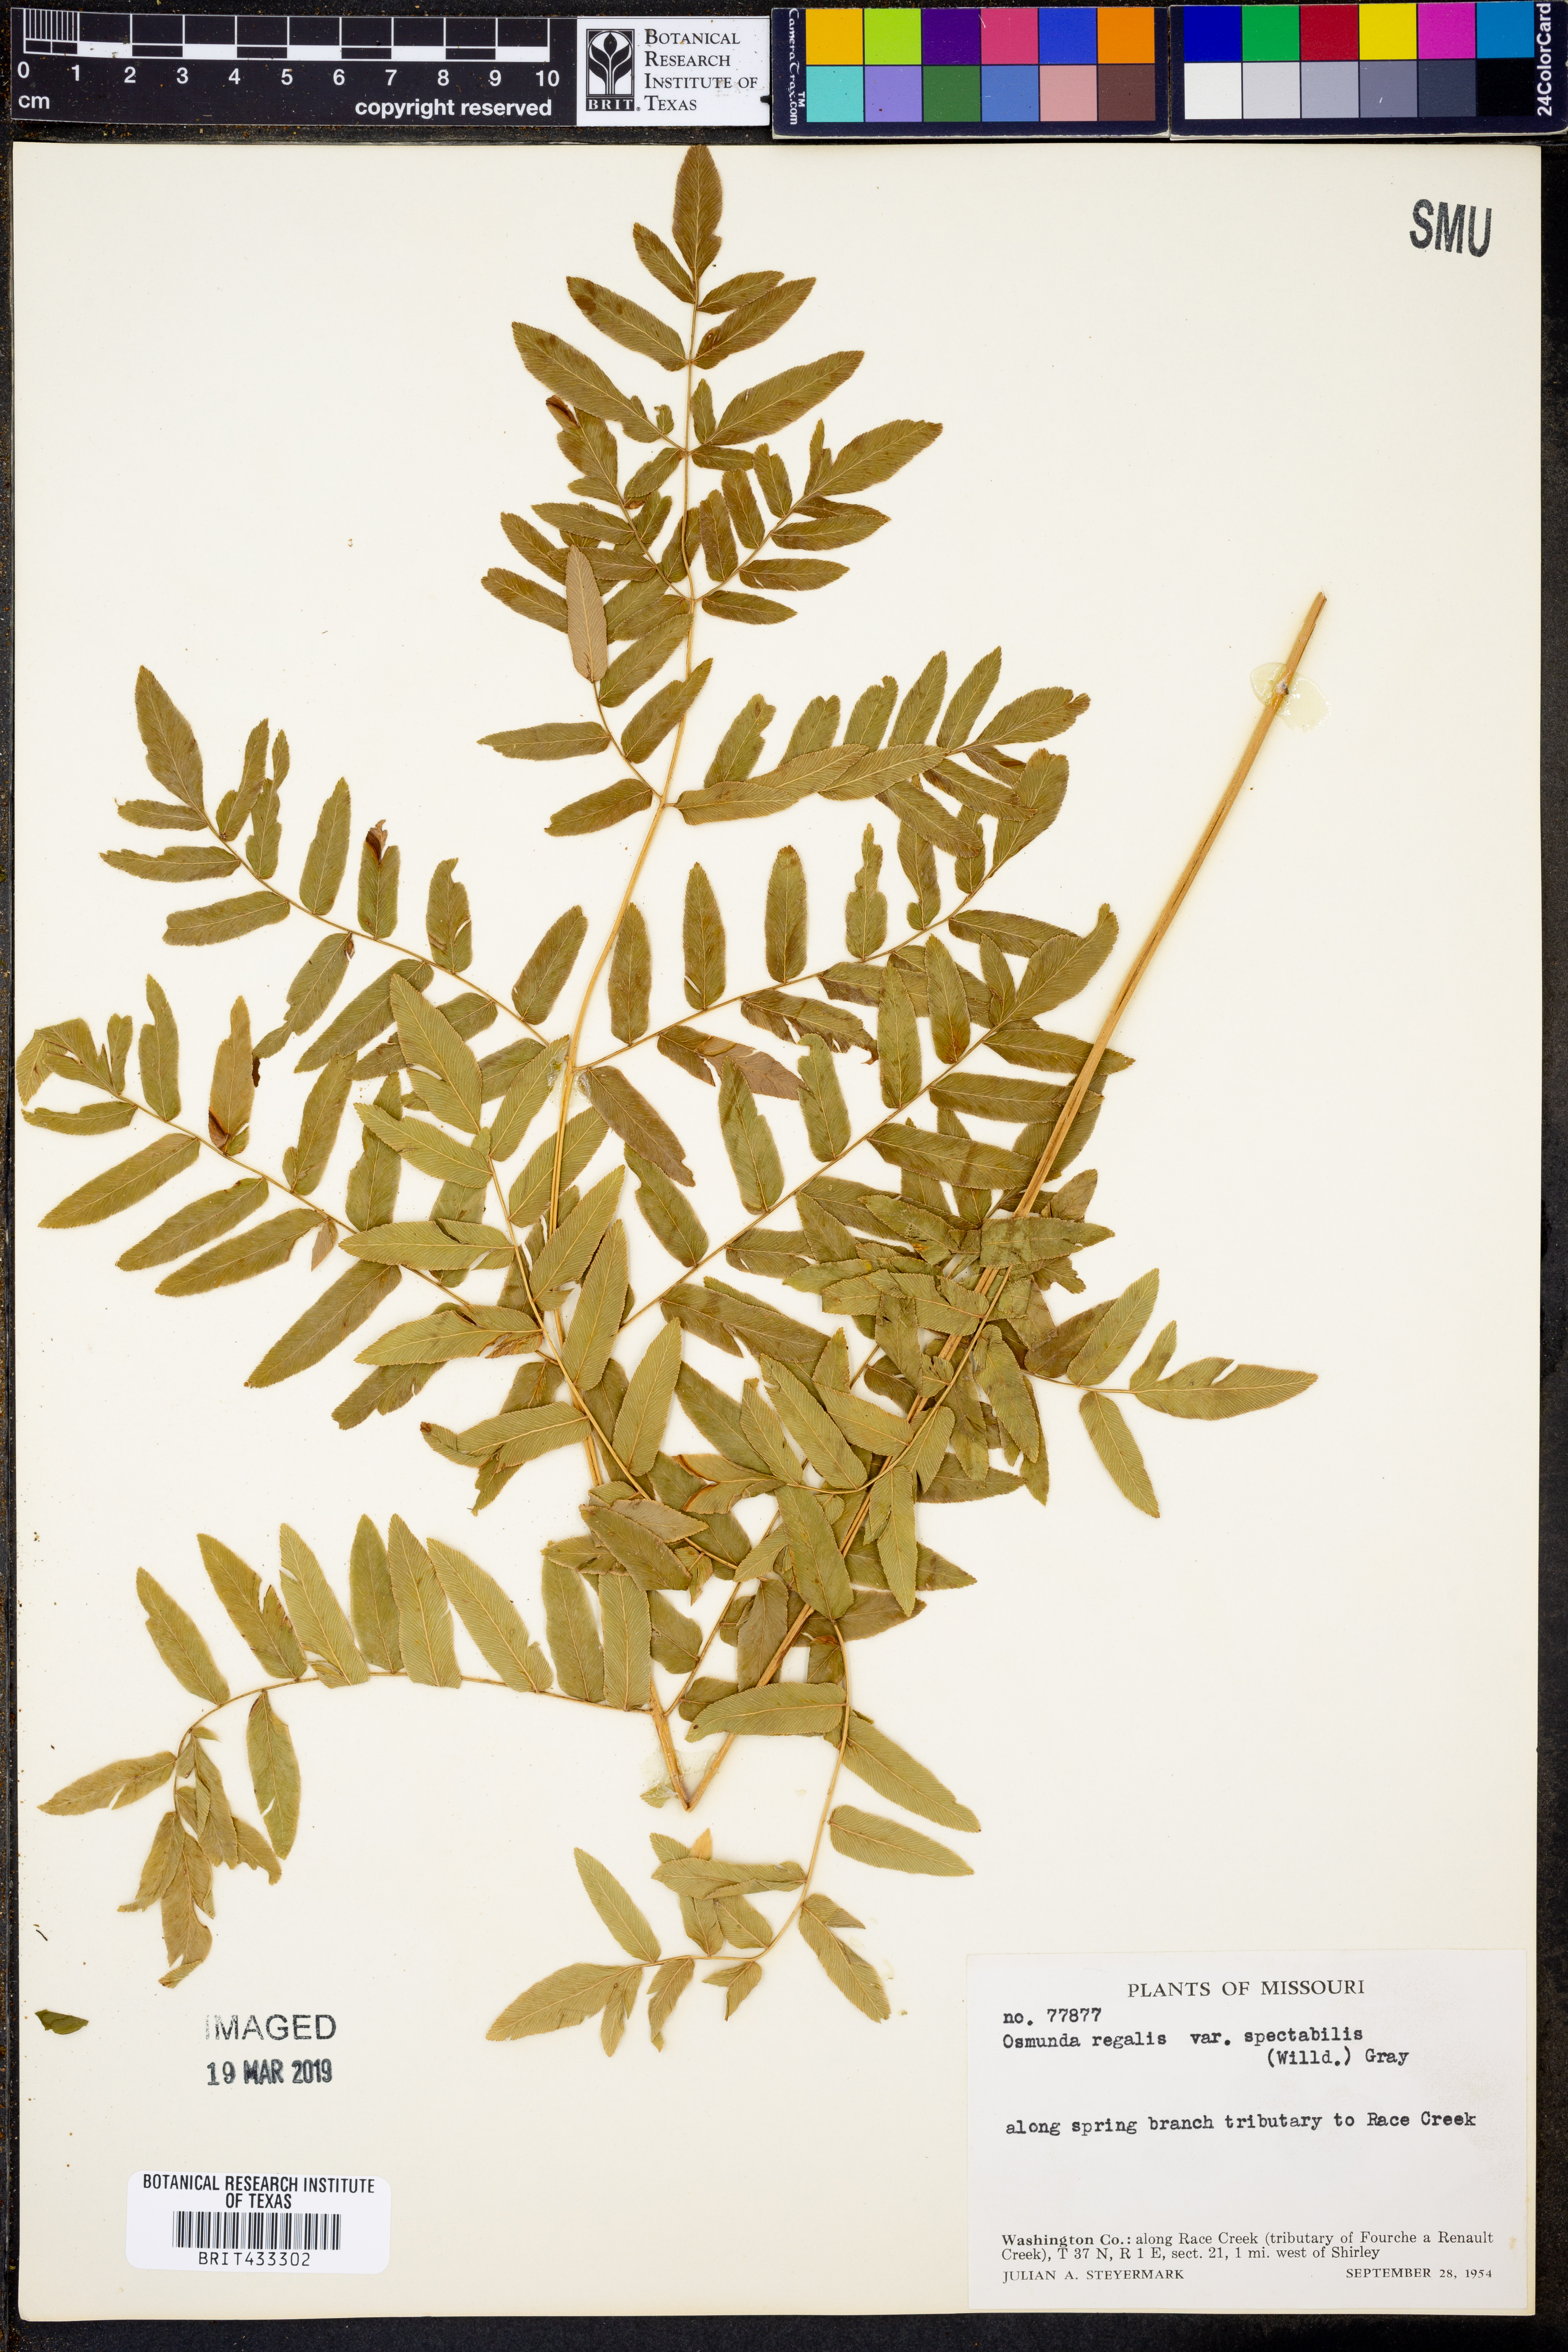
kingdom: Plantae
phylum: Tracheophyta
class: Polypodiopsida
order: Osmundales
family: Osmundaceae
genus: Osmunda
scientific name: Osmunda spectabilis
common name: American royal fern
